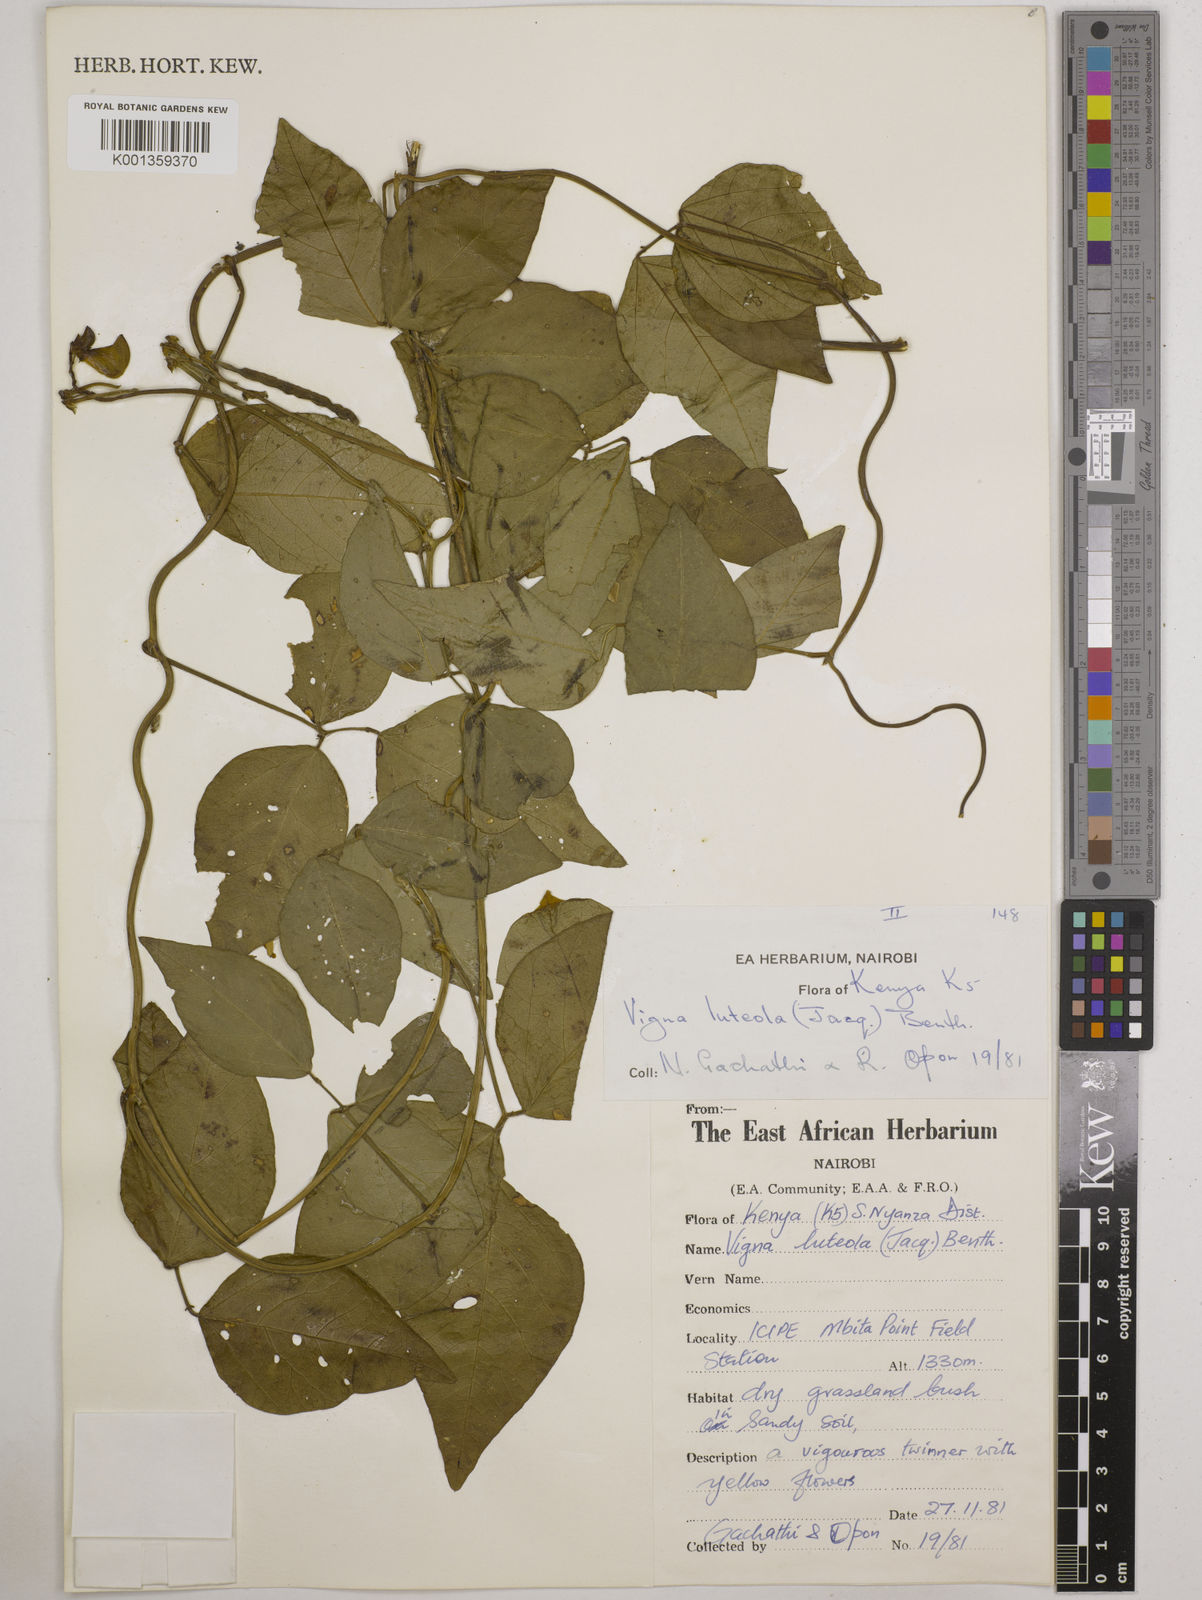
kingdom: Plantae
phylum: Tracheophyta
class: Magnoliopsida
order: Fabales
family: Fabaceae
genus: Vigna
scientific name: Vigna luteola
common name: Hairypod cowpea
